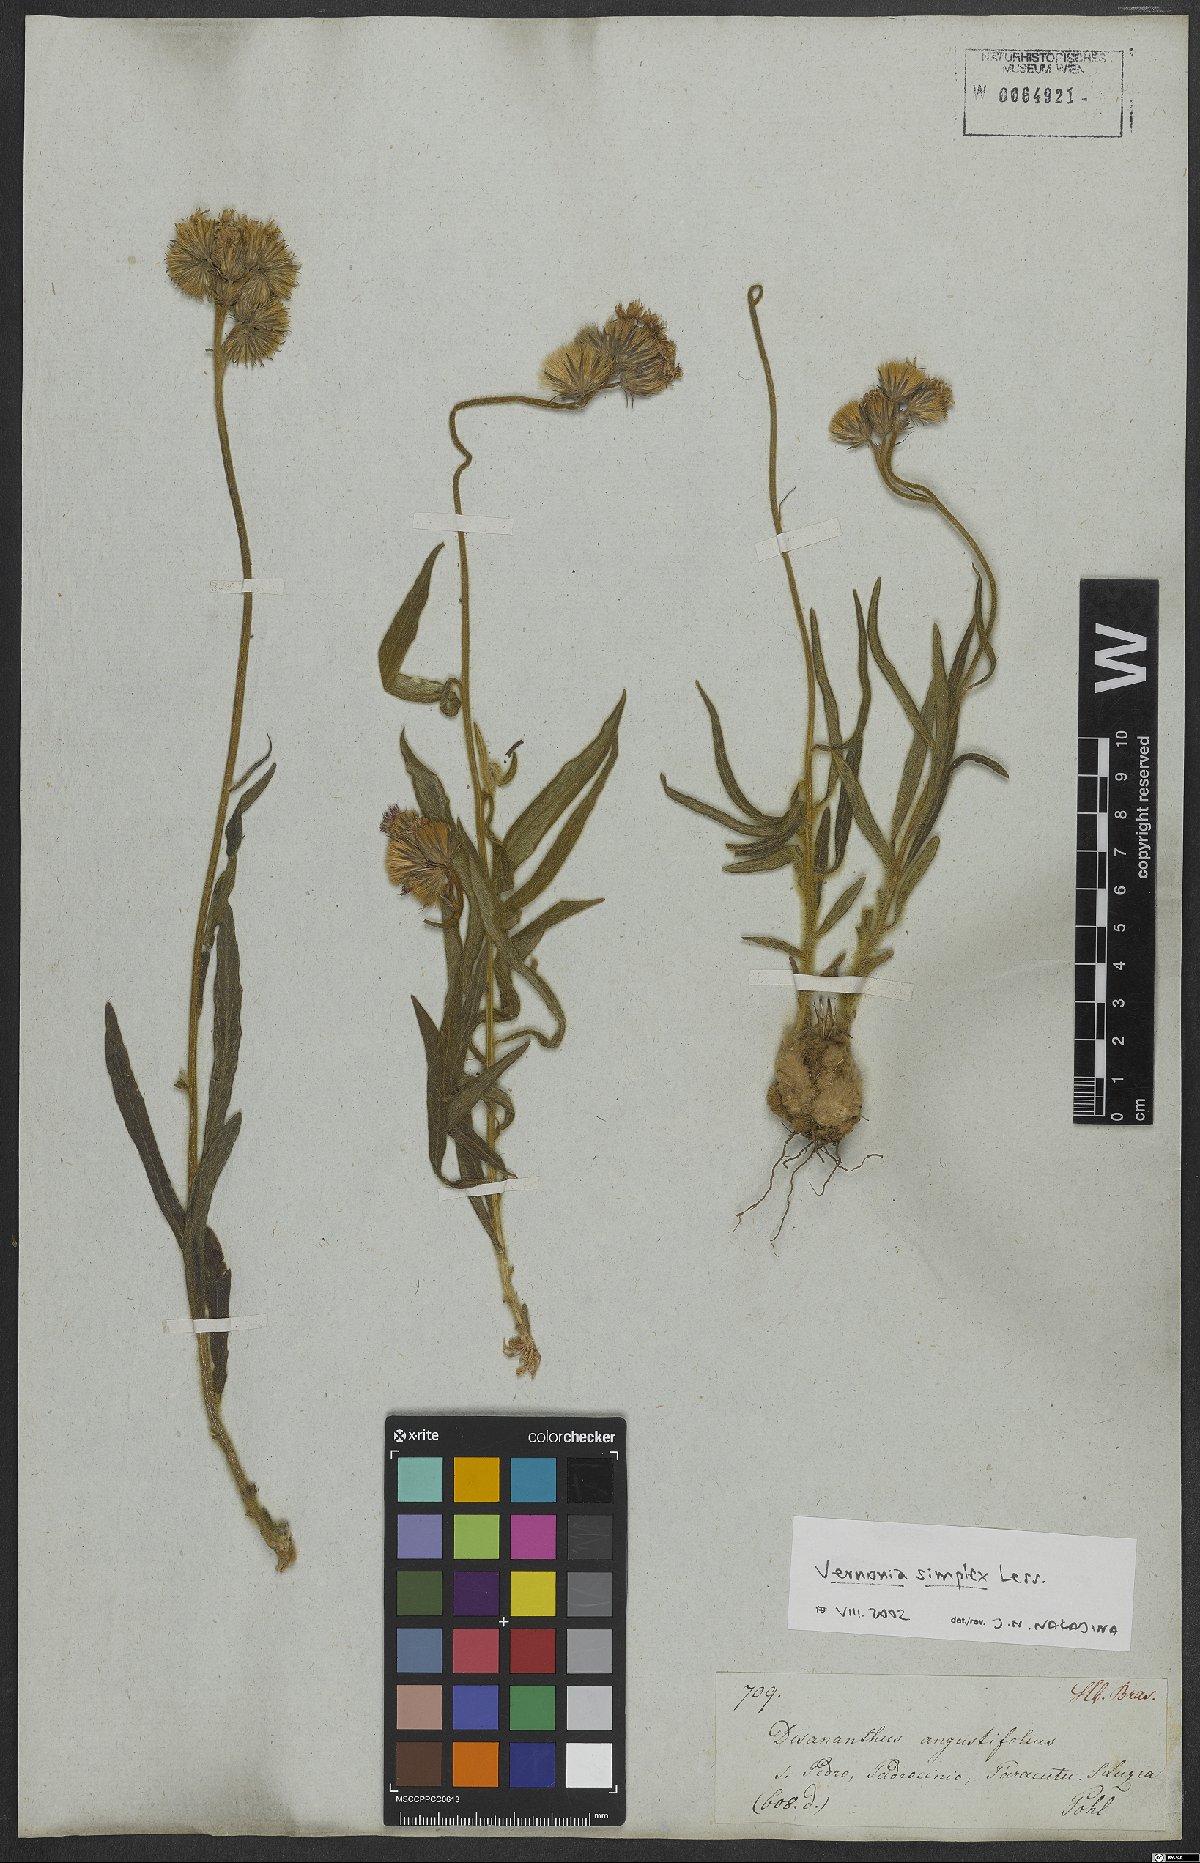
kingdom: Plantae
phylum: Tracheophyta
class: Magnoliopsida
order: Asterales
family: Asteraceae
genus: Chrysolaena
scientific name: Chrysolaena simplex
